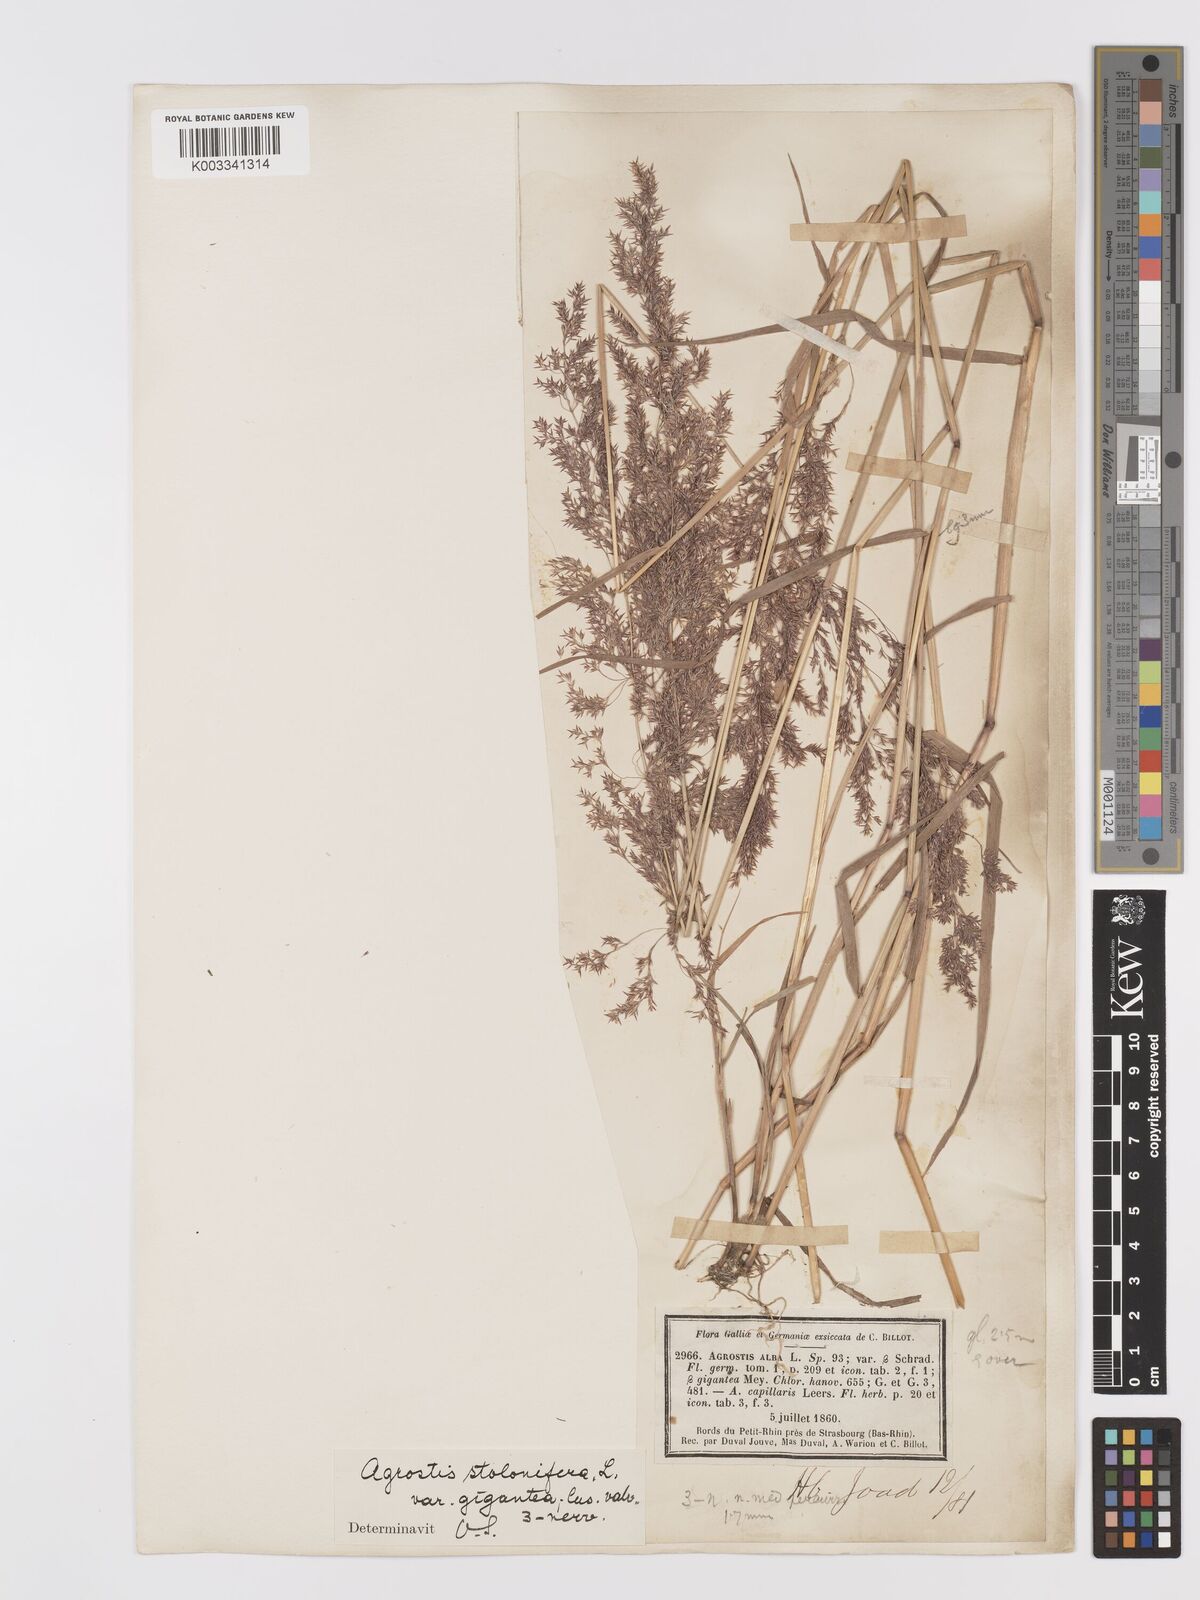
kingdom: Plantae
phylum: Tracheophyta
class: Liliopsida
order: Poales
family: Poaceae
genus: Agrostis
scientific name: Agrostis gigantea
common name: Black bent
